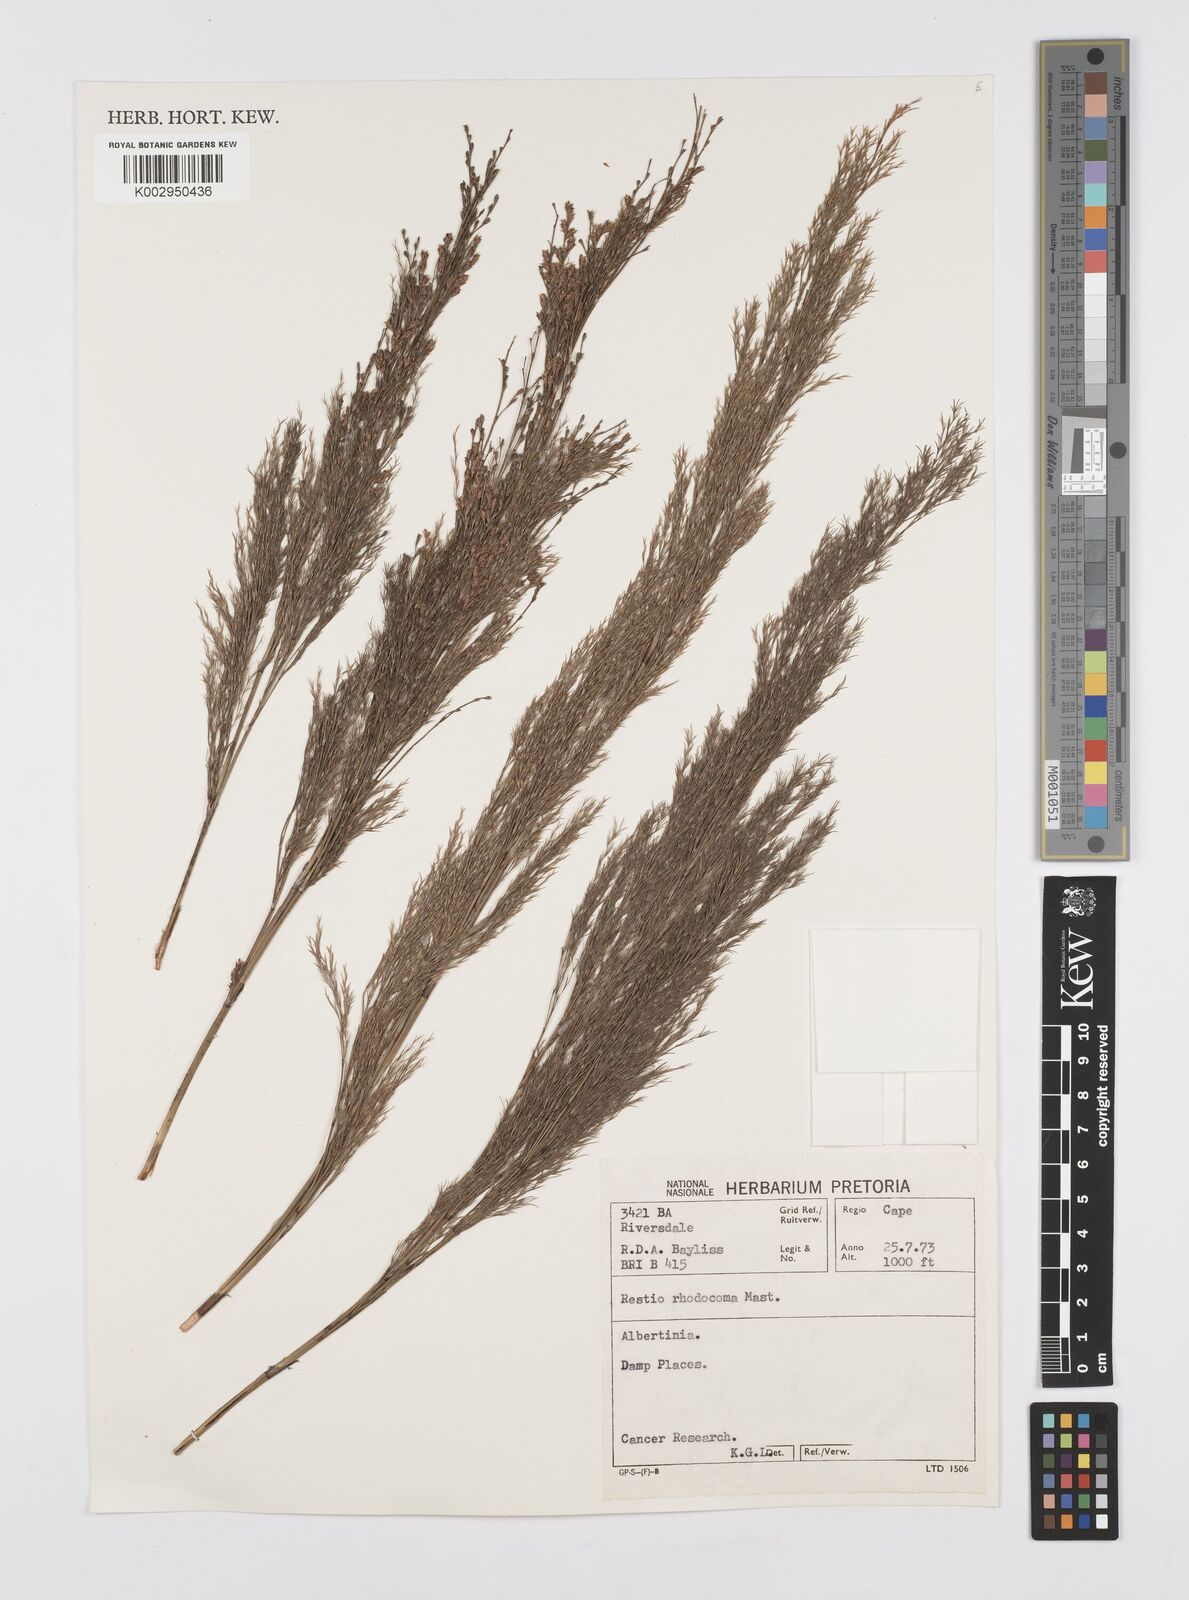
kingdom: Plantae
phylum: Tracheophyta
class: Liliopsida
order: Poales
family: Restionaceae
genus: Rhodocoma
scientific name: Rhodocoma capensis
